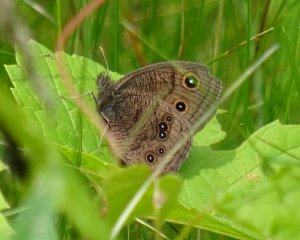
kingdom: Animalia
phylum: Arthropoda
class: Insecta
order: Lepidoptera
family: Nymphalidae
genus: Cercyonis
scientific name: Cercyonis pegala
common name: Common Wood-Nymph
